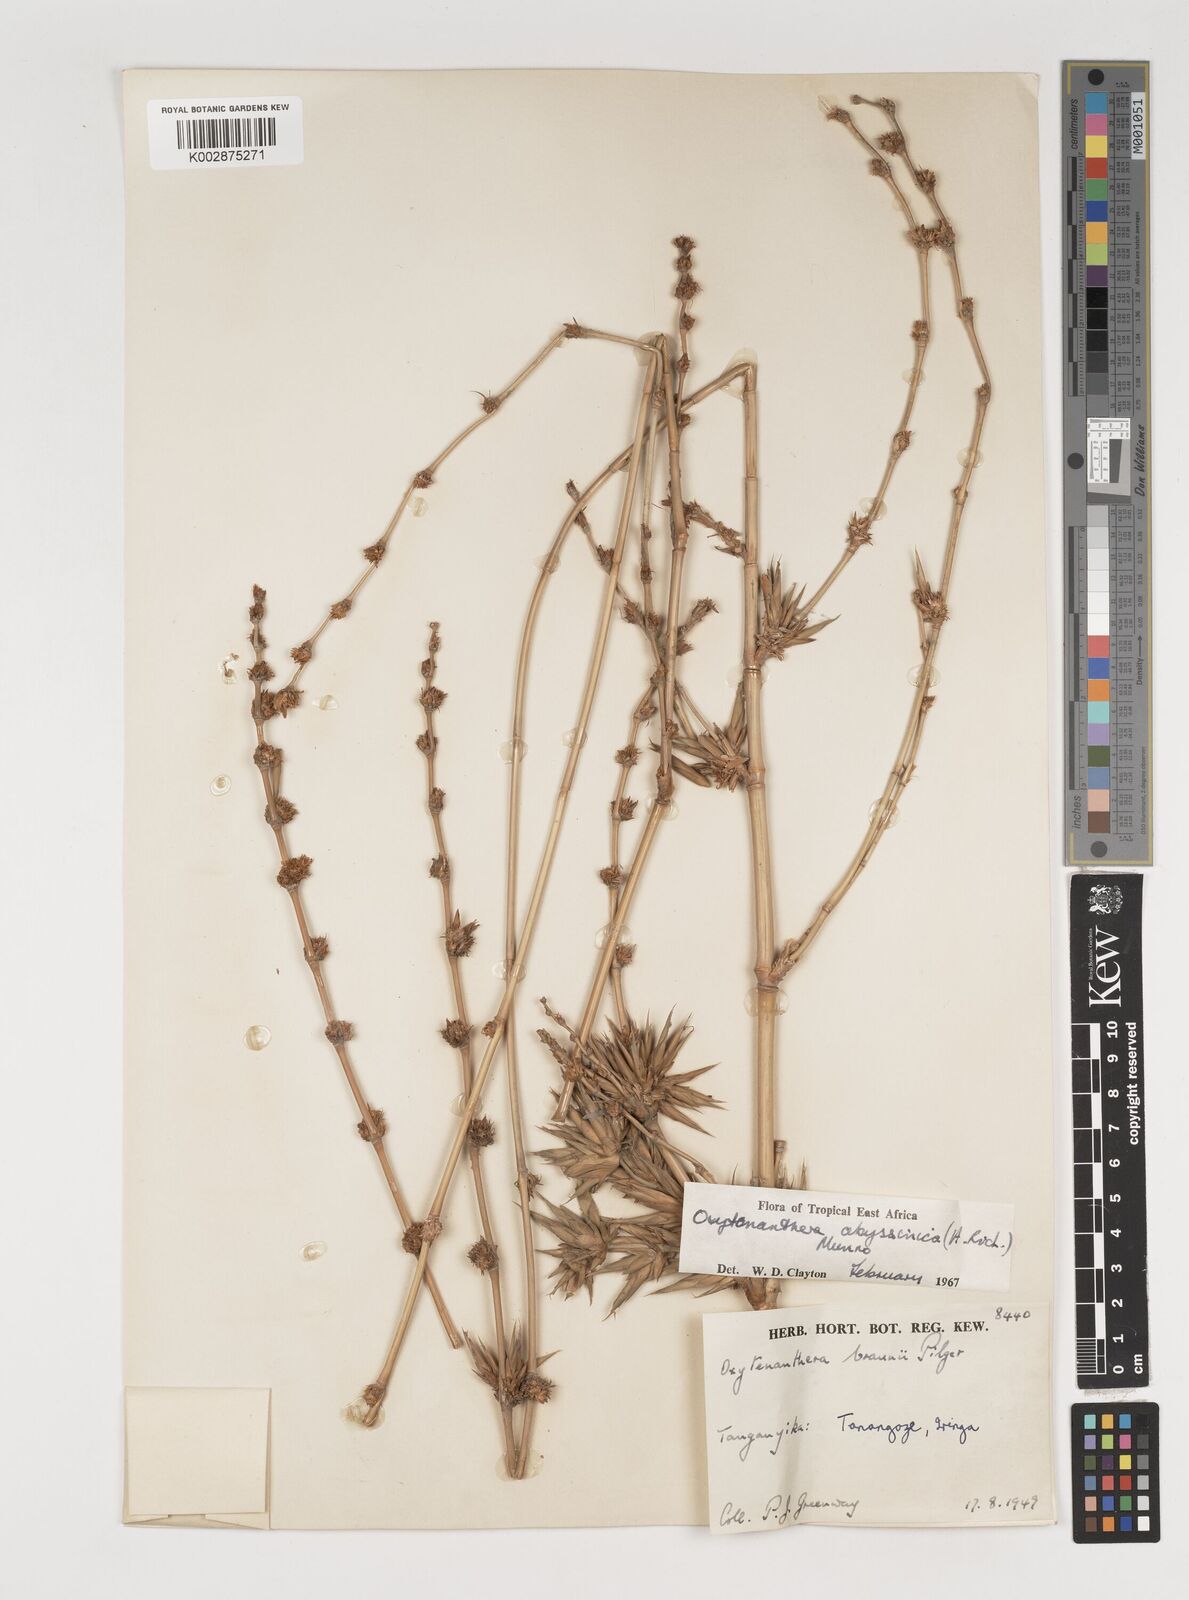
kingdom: Plantae
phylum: Tracheophyta
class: Liliopsida
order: Poales
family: Poaceae
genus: Oxytenanthera
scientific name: Oxytenanthera abyssinica
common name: Wine bamboo
